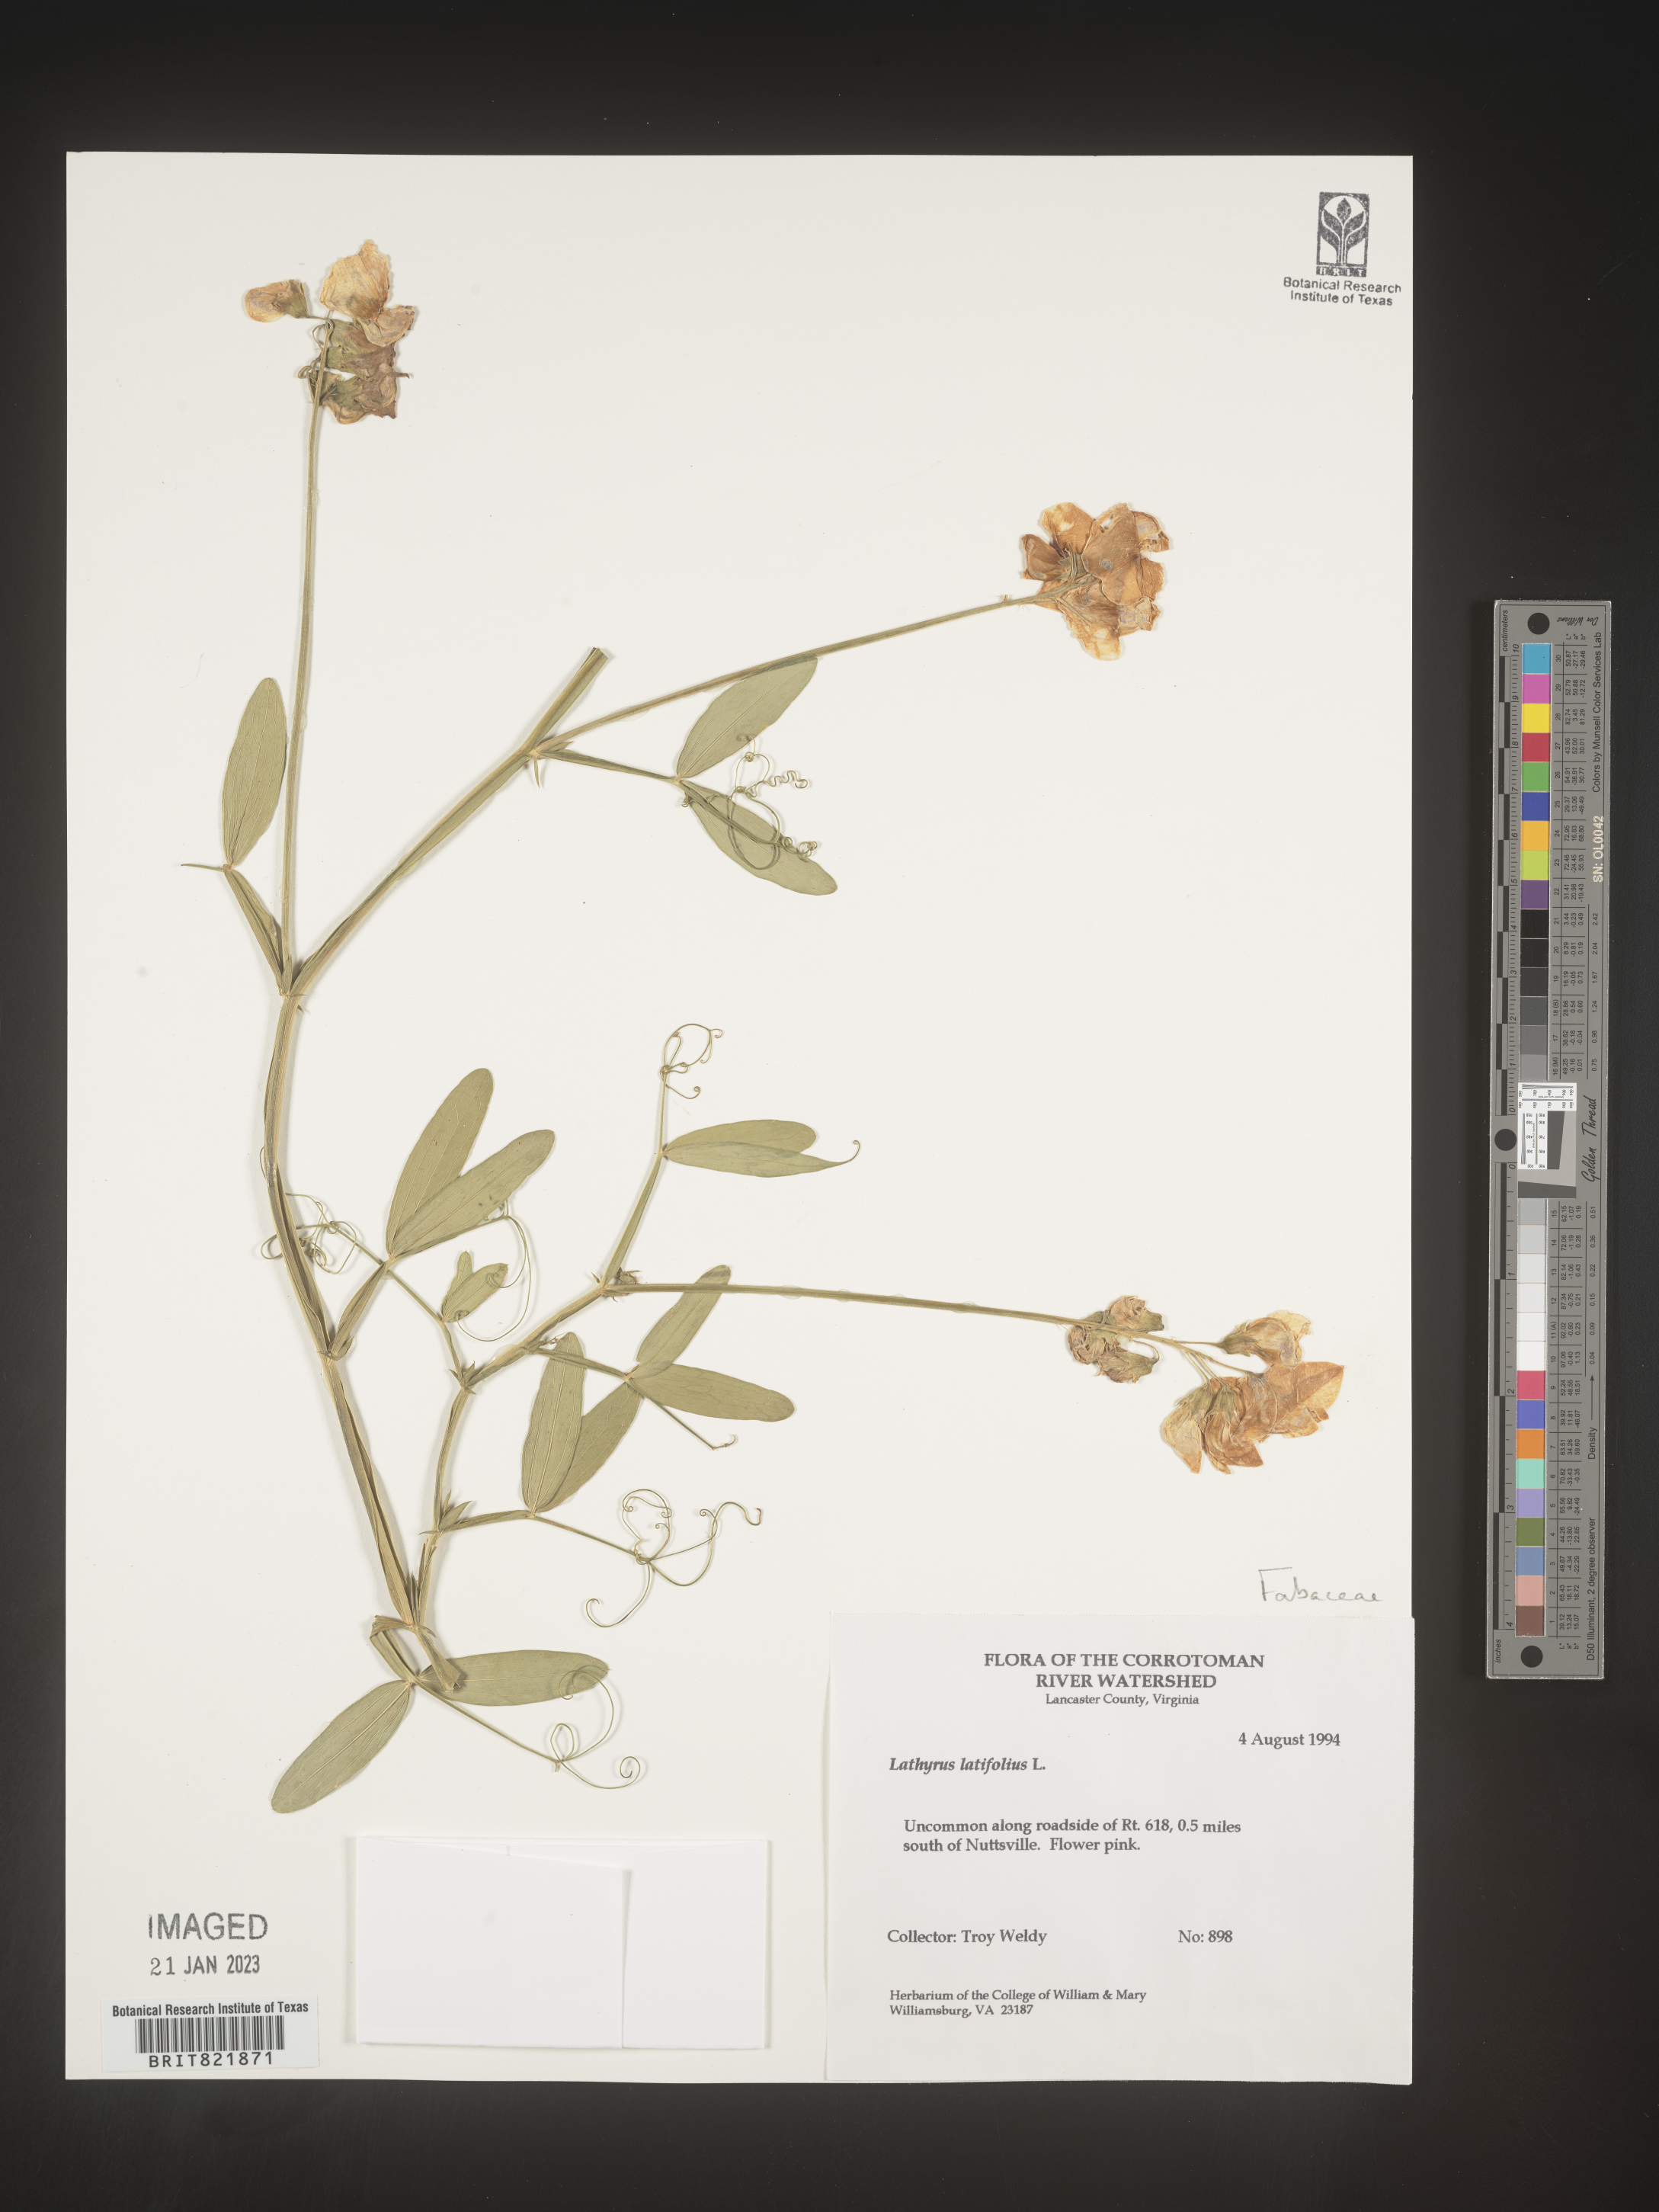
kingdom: Plantae
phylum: Tracheophyta
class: Magnoliopsida
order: Fabales
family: Fabaceae
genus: Lathyrus
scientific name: Lathyrus latifolius
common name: Perennial pea
